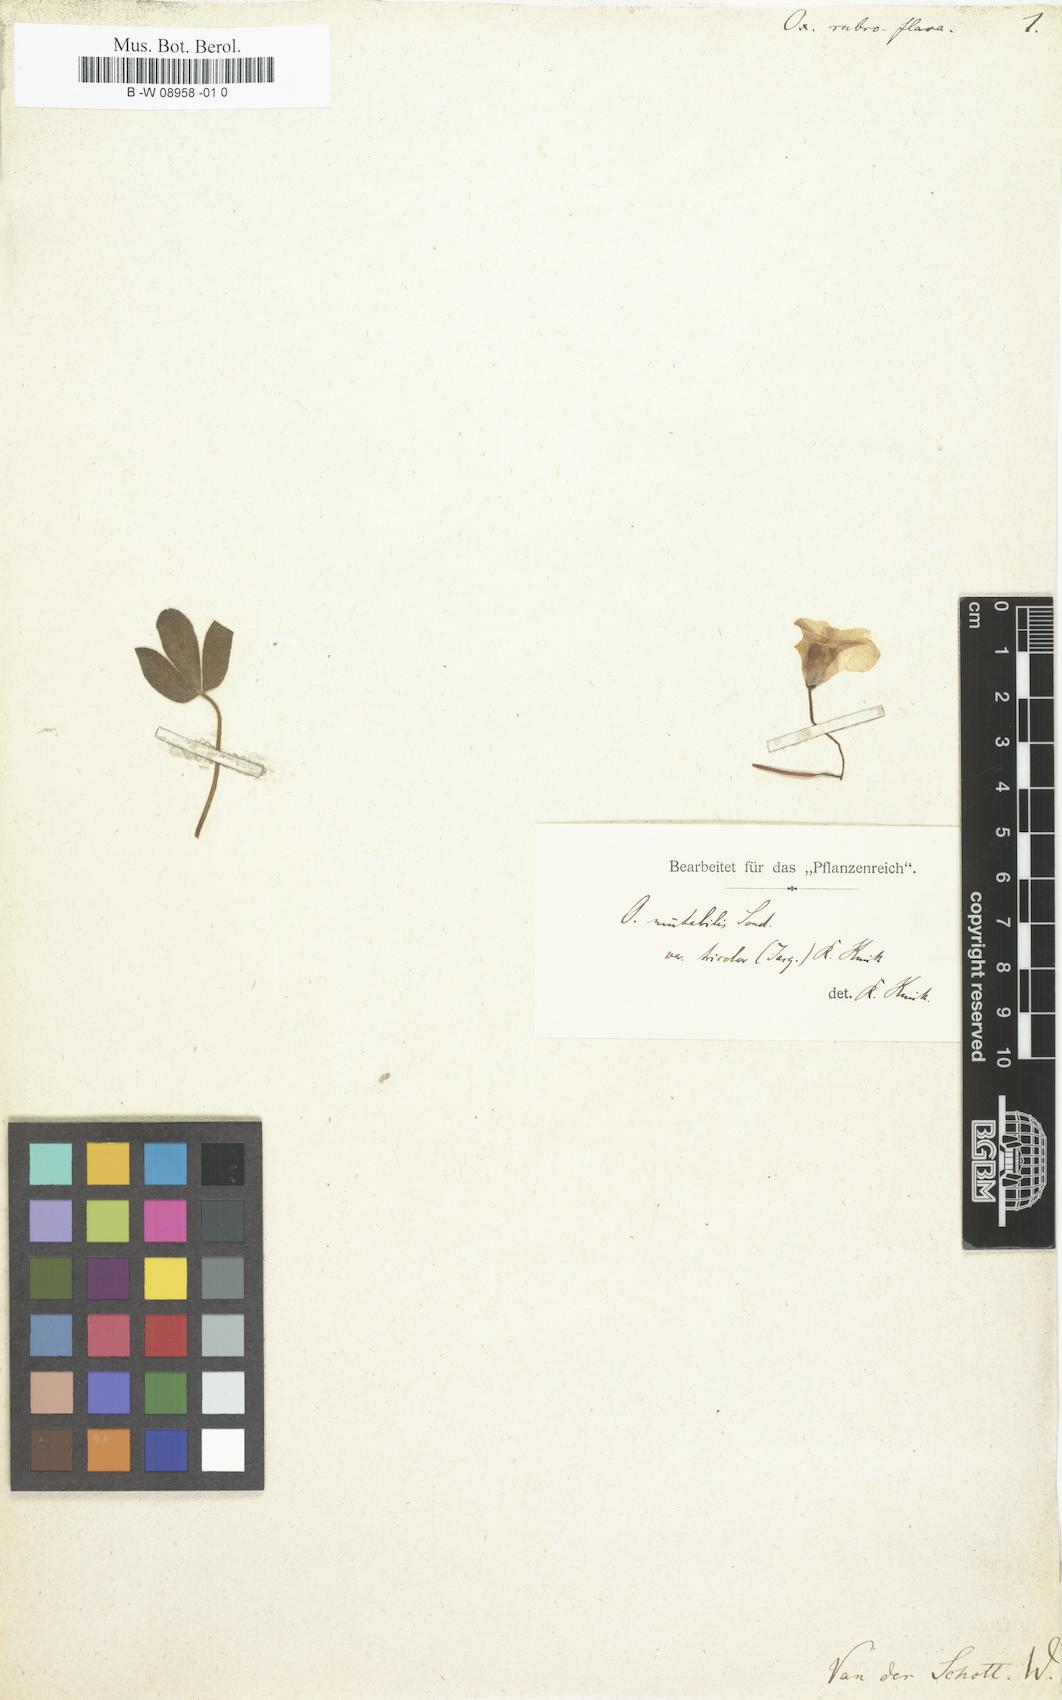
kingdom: Plantae
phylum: Tracheophyta
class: Magnoliopsida
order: Oxalidales
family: Oxalidaceae
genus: Oxalis
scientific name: Oxalis ambigua
